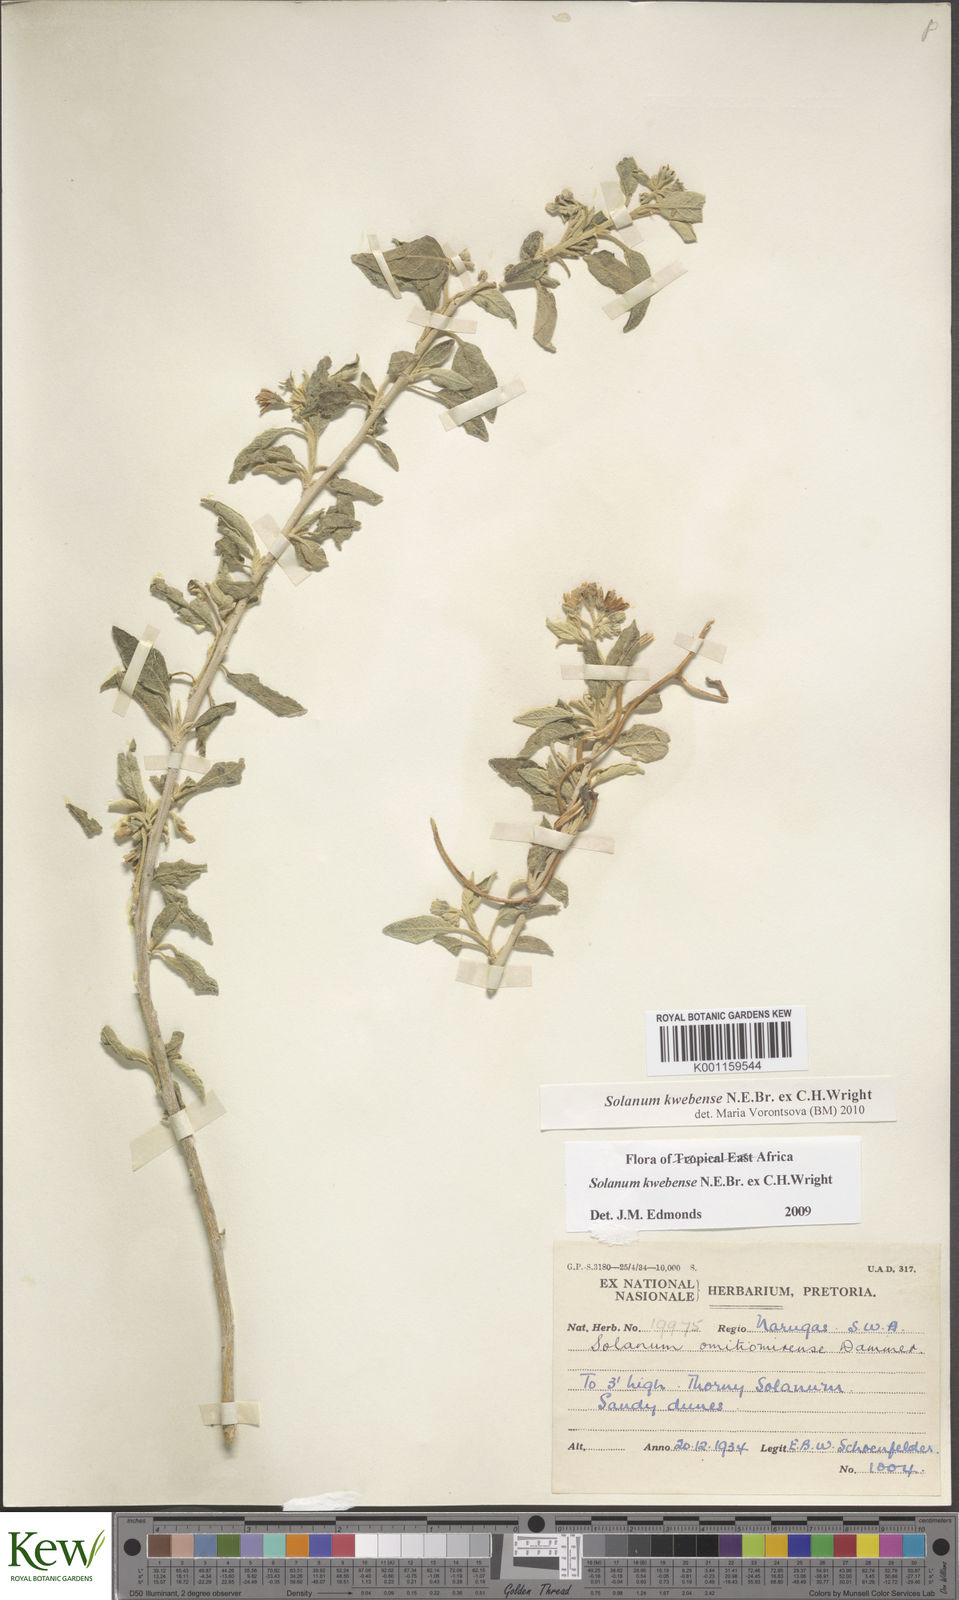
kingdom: Plantae
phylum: Tracheophyta
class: Magnoliopsida
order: Solanales
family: Solanaceae
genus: Solanum
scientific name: Solanum tettense
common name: Mozambique bitter apple
